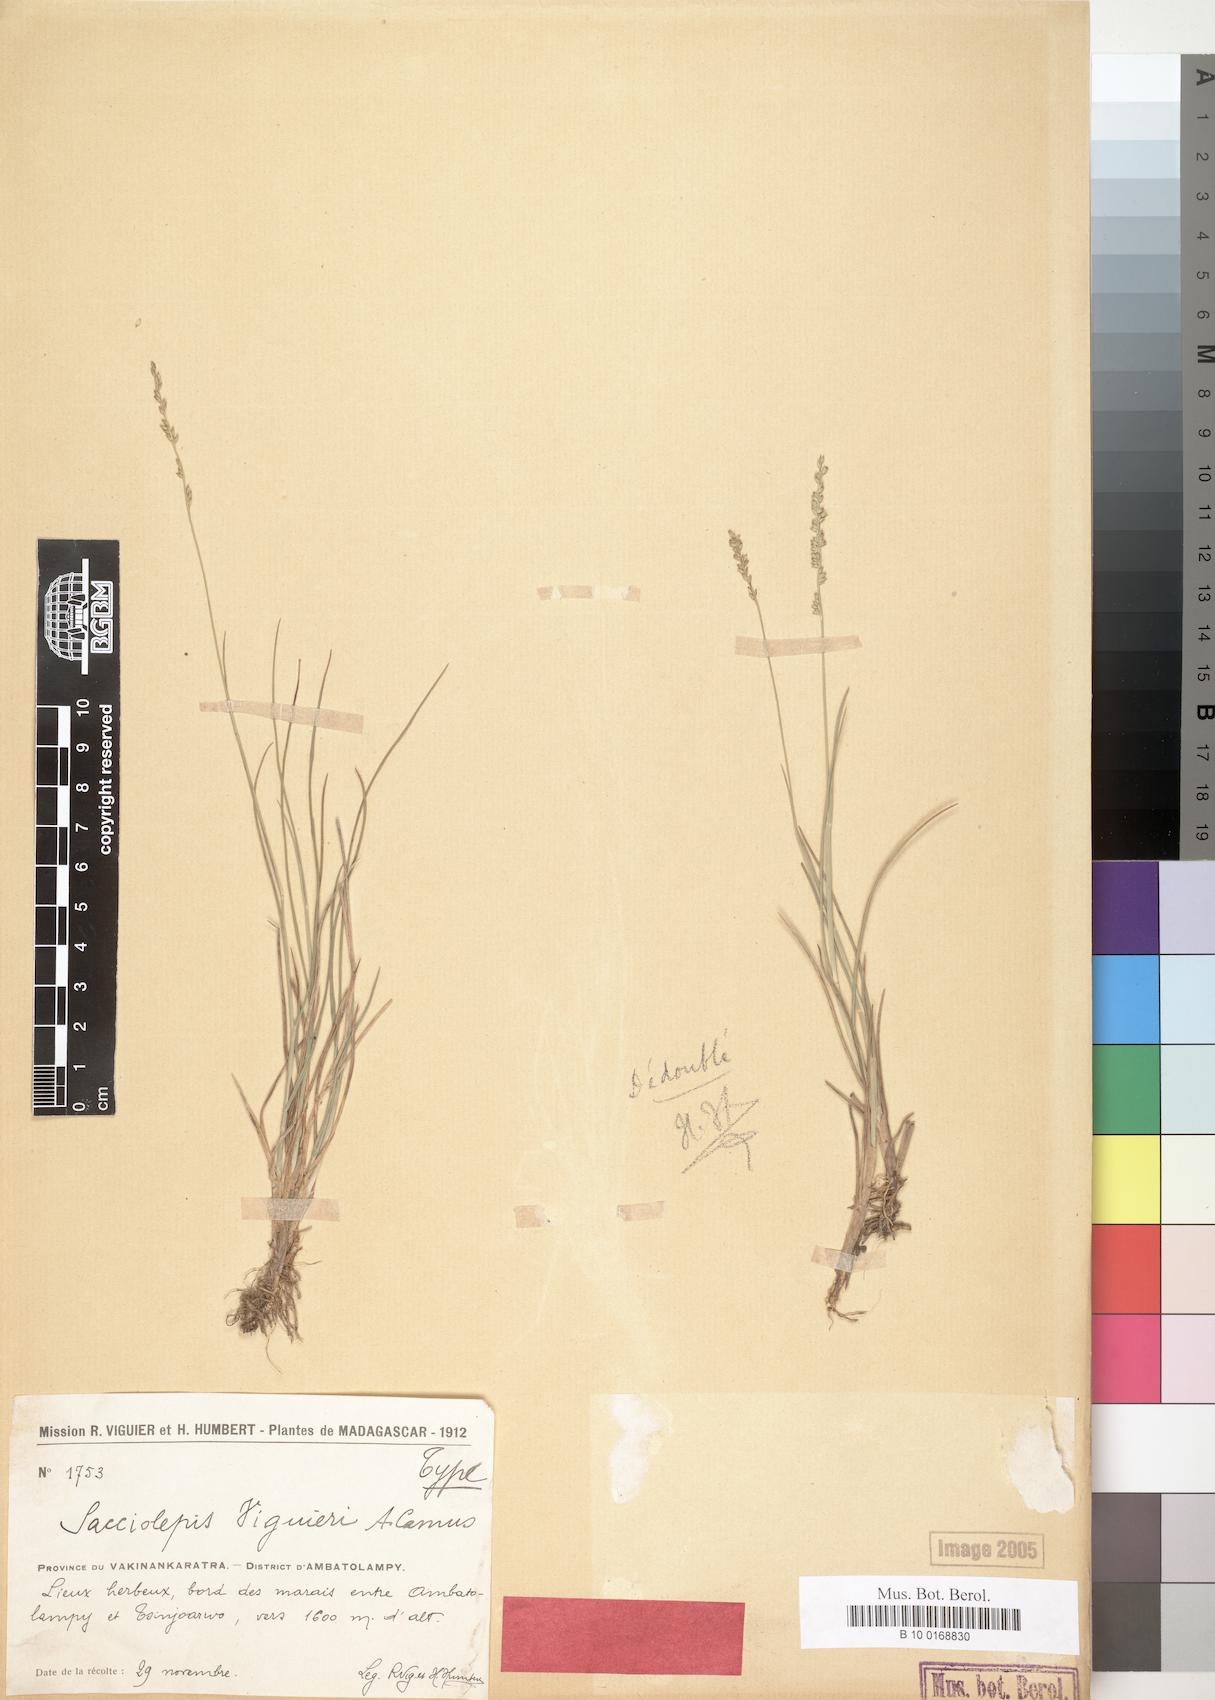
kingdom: Plantae
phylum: Tracheophyta
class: Liliopsida
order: Poales
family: Poaceae
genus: Sacciolepis
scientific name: Sacciolepis viguieri
